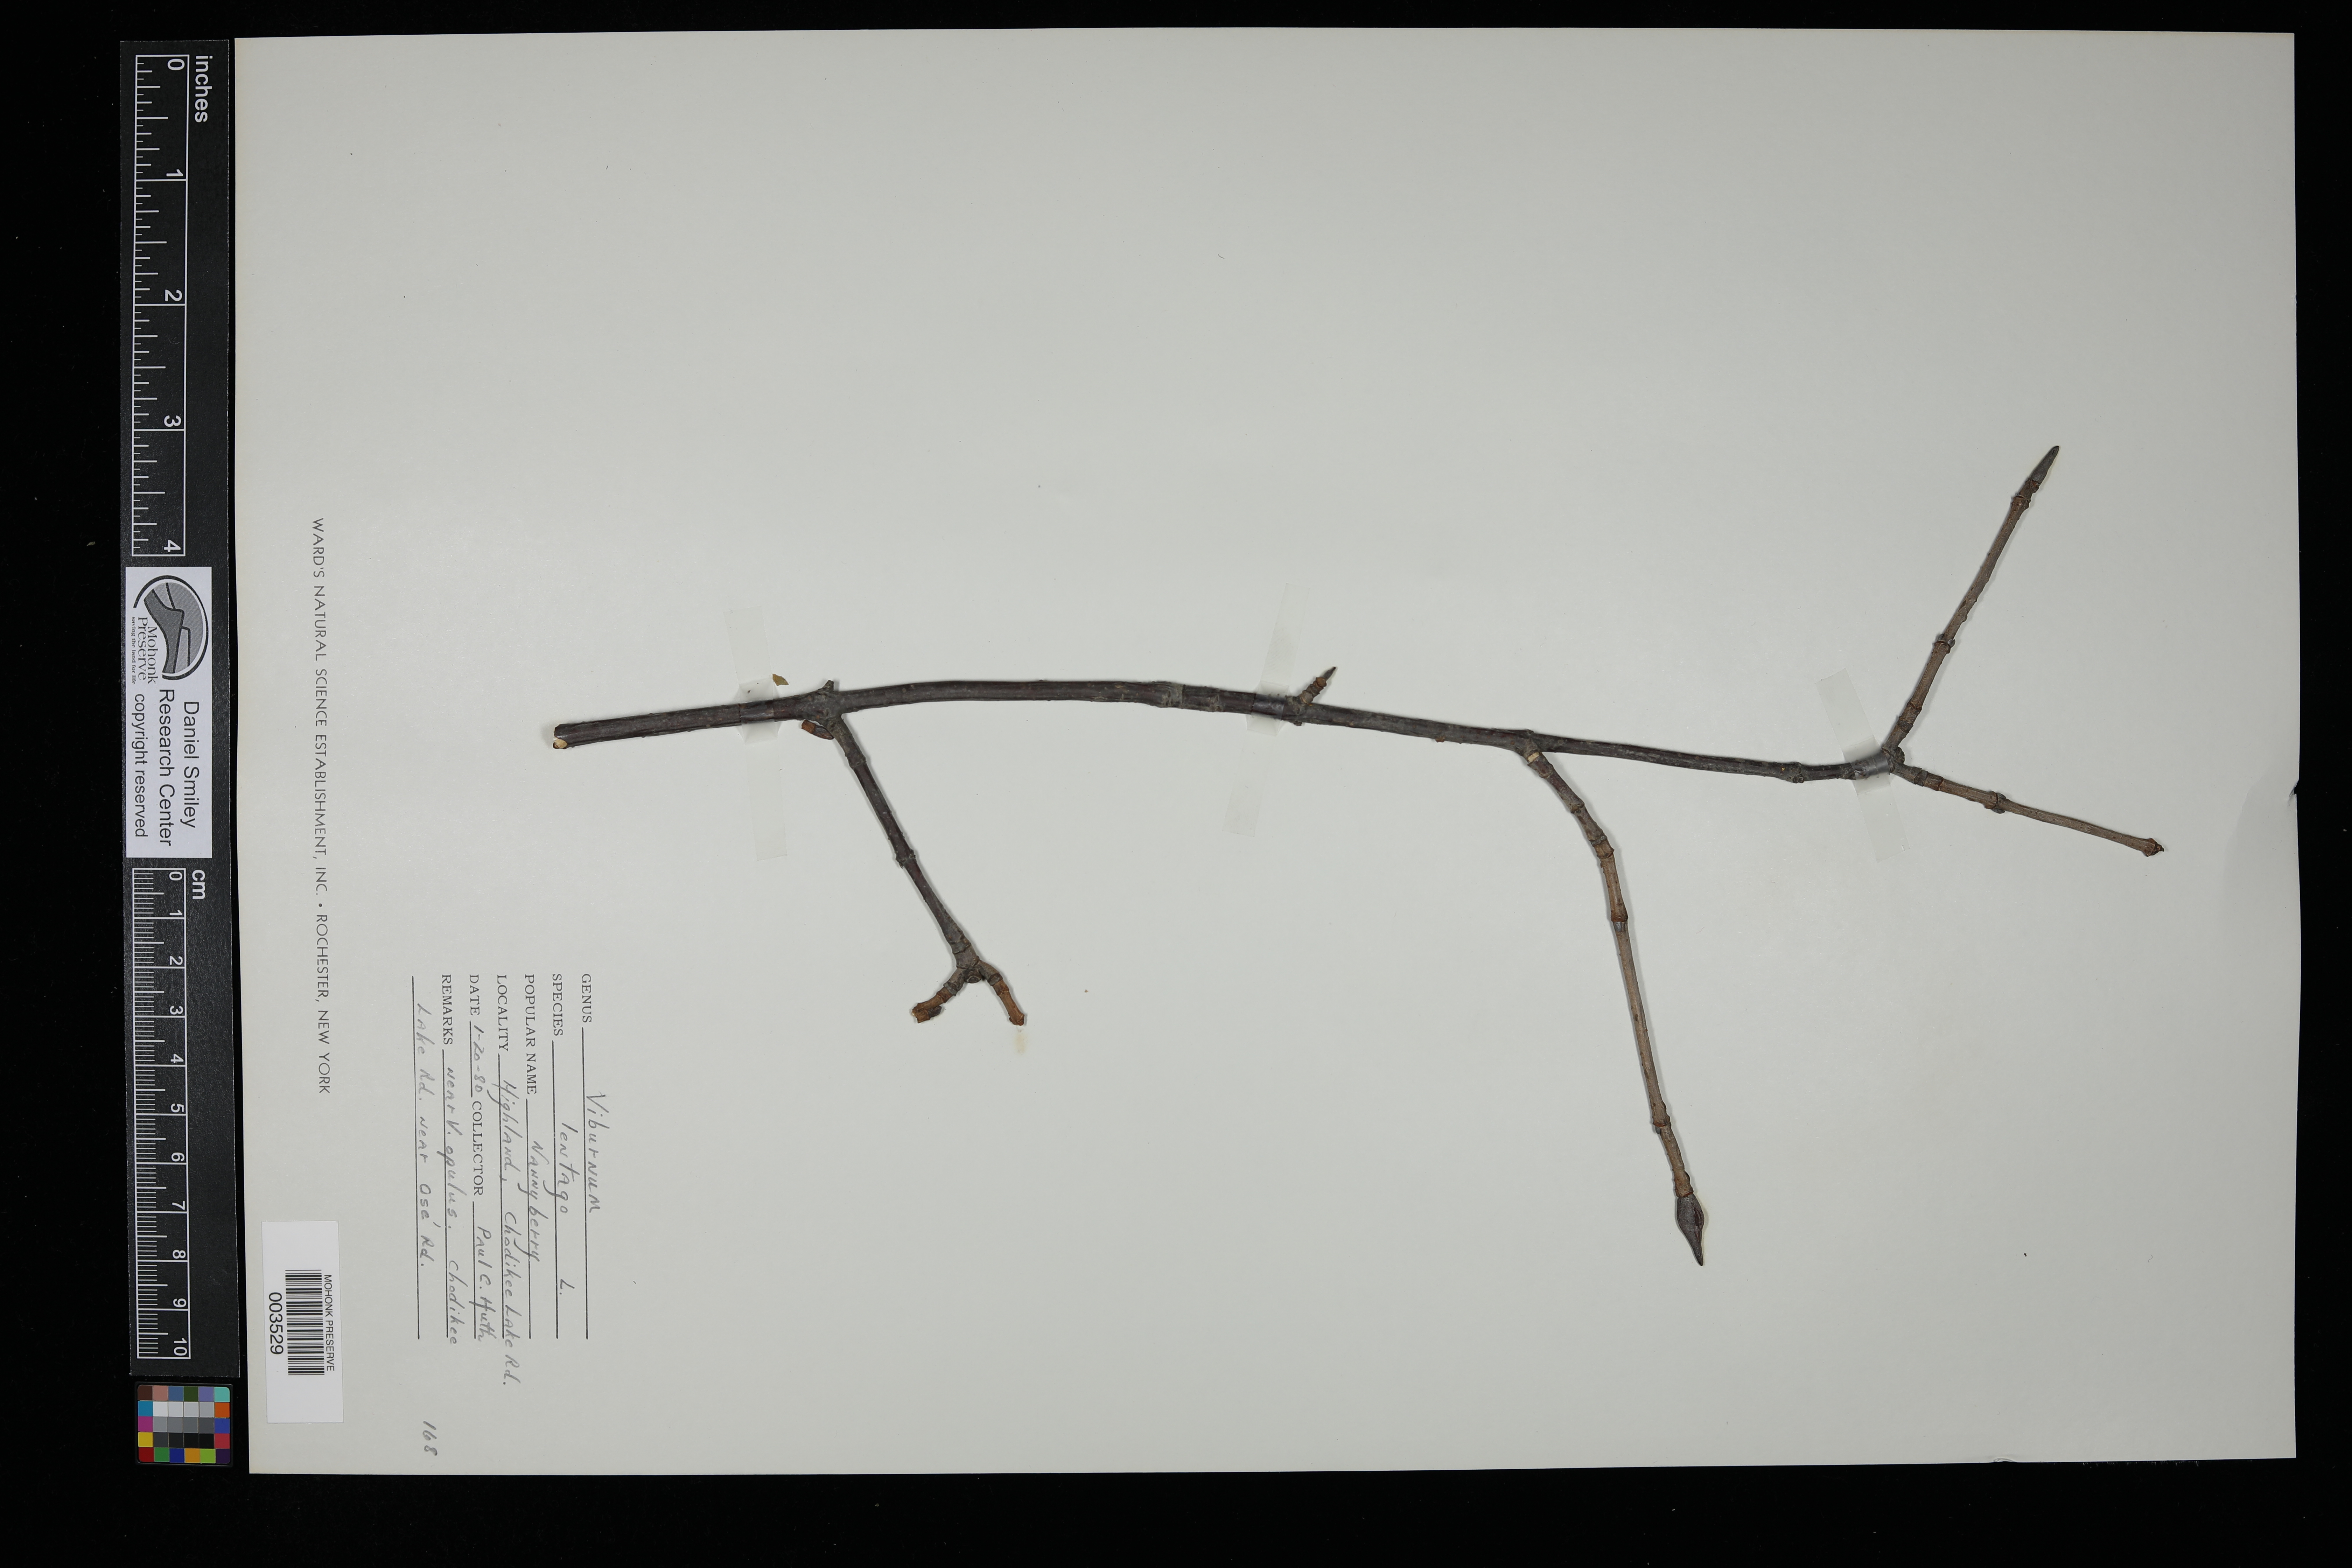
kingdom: Plantae
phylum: Tracheophyta
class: Magnoliopsida
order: Dipsacales
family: Viburnaceae
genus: Viburnum
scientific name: Viburnum lentago
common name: Black haw
